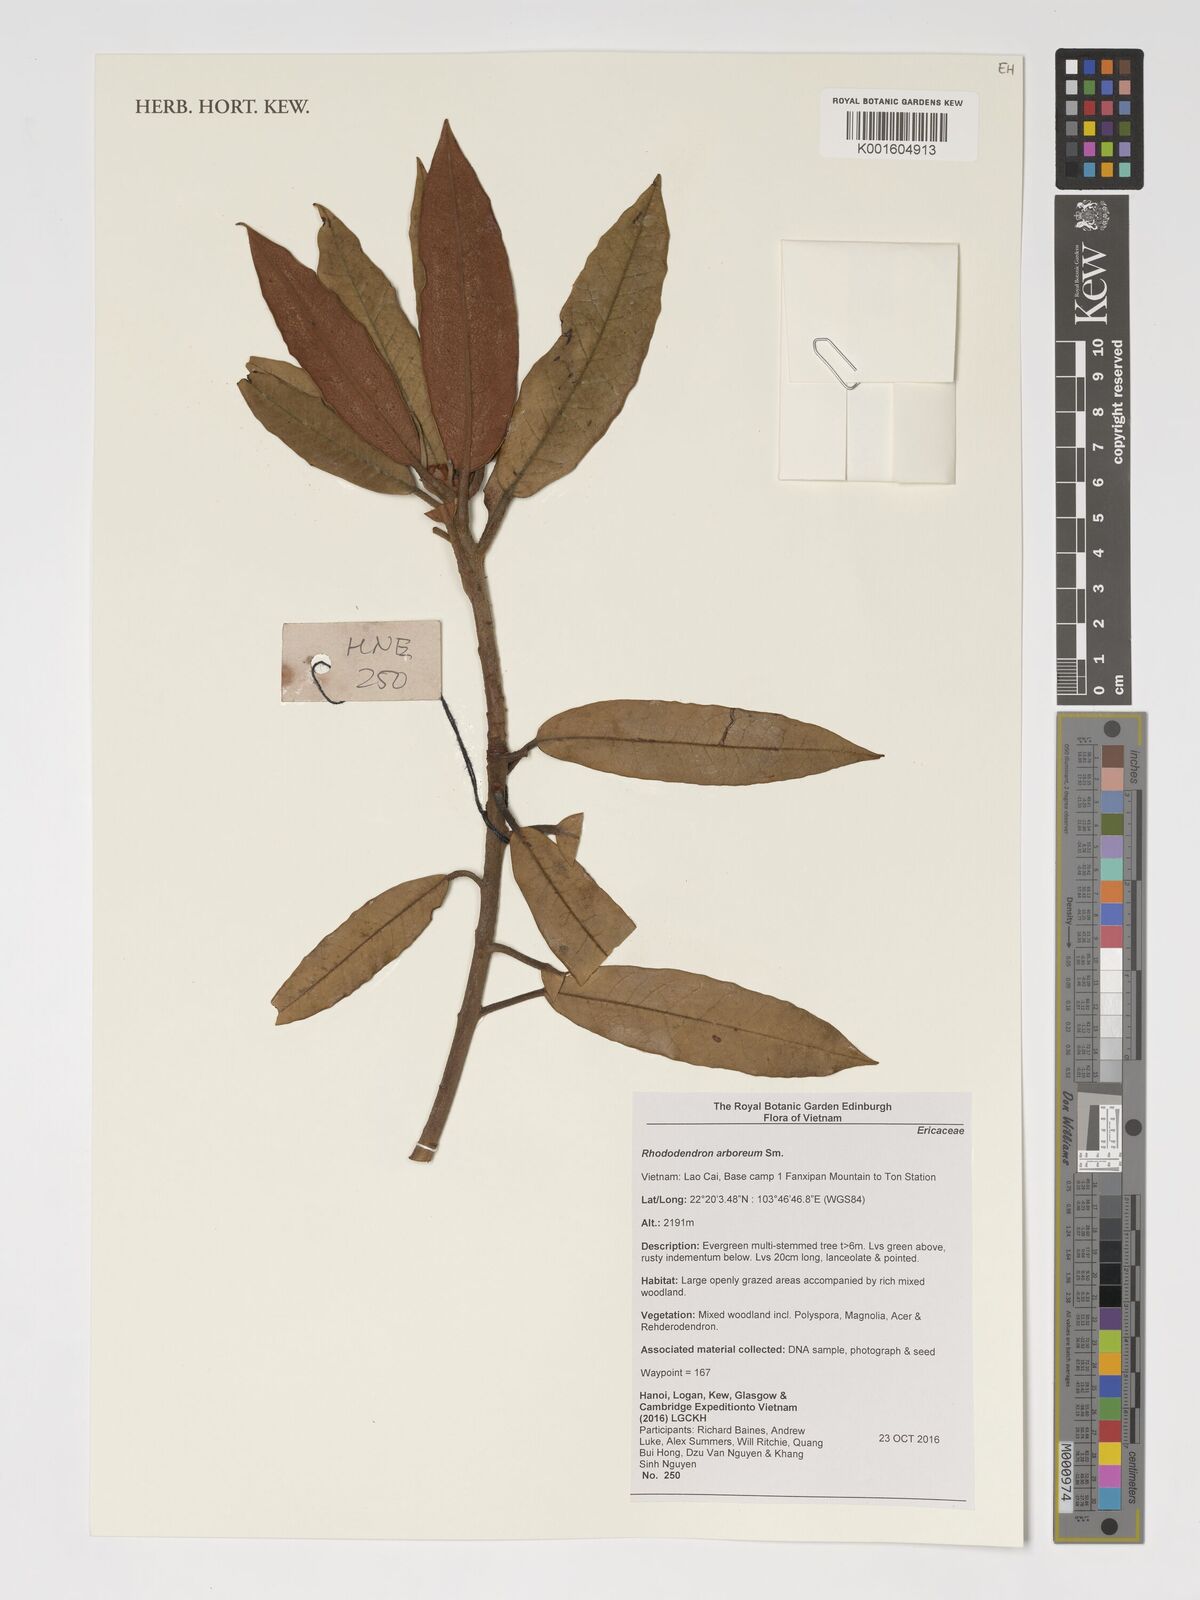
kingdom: Plantae
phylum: Tracheophyta
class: Magnoliopsida
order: Ericales
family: Ericaceae
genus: Rhododendron
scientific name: Rhododendron arboreum
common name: Tree rhododendron
